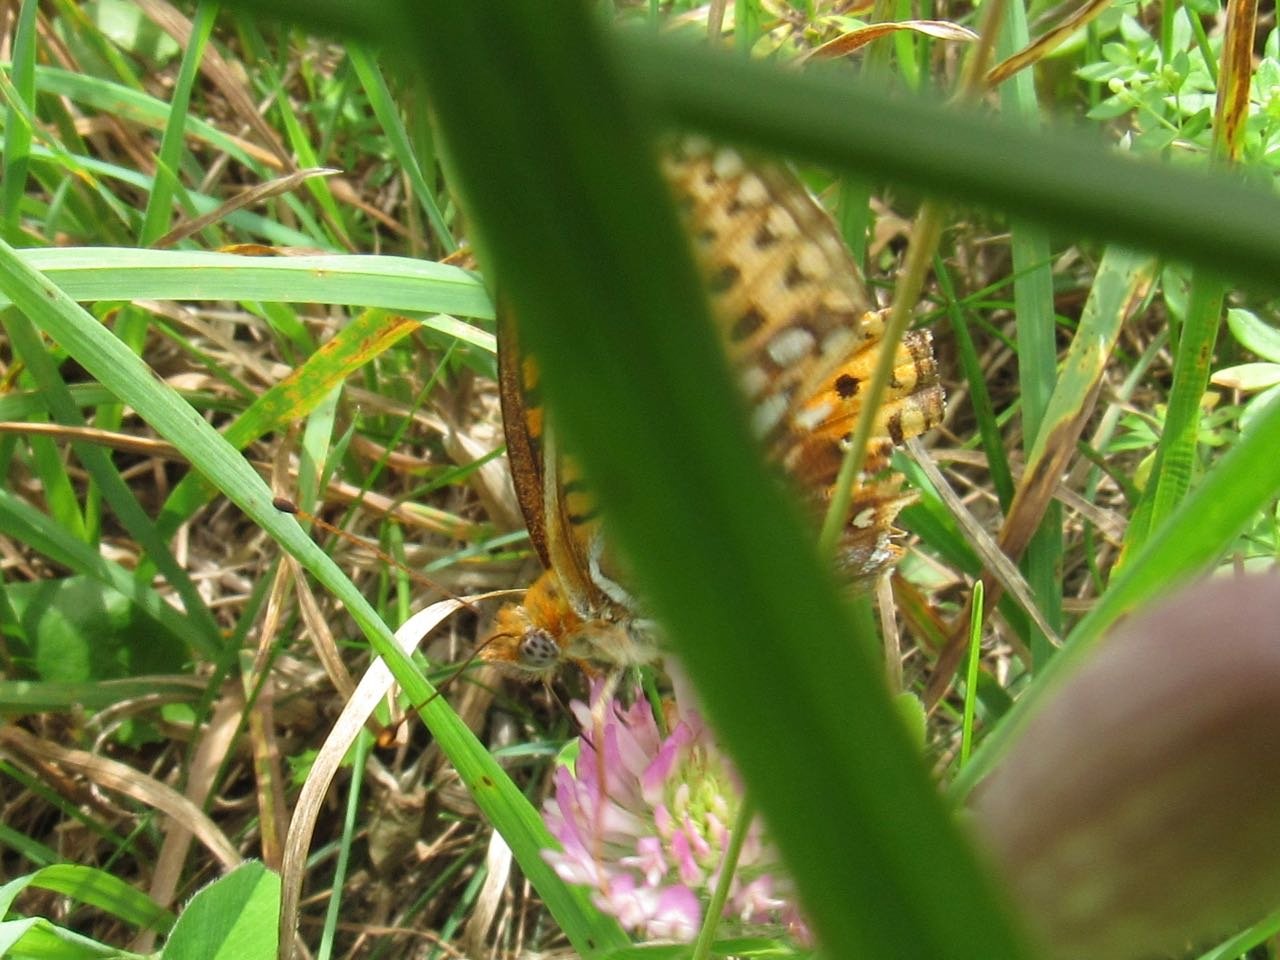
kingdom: Animalia
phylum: Arthropoda
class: Insecta
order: Lepidoptera
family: Nymphalidae
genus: Speyeria
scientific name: Speyeria atlantis
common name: Atlantis Fritillary
